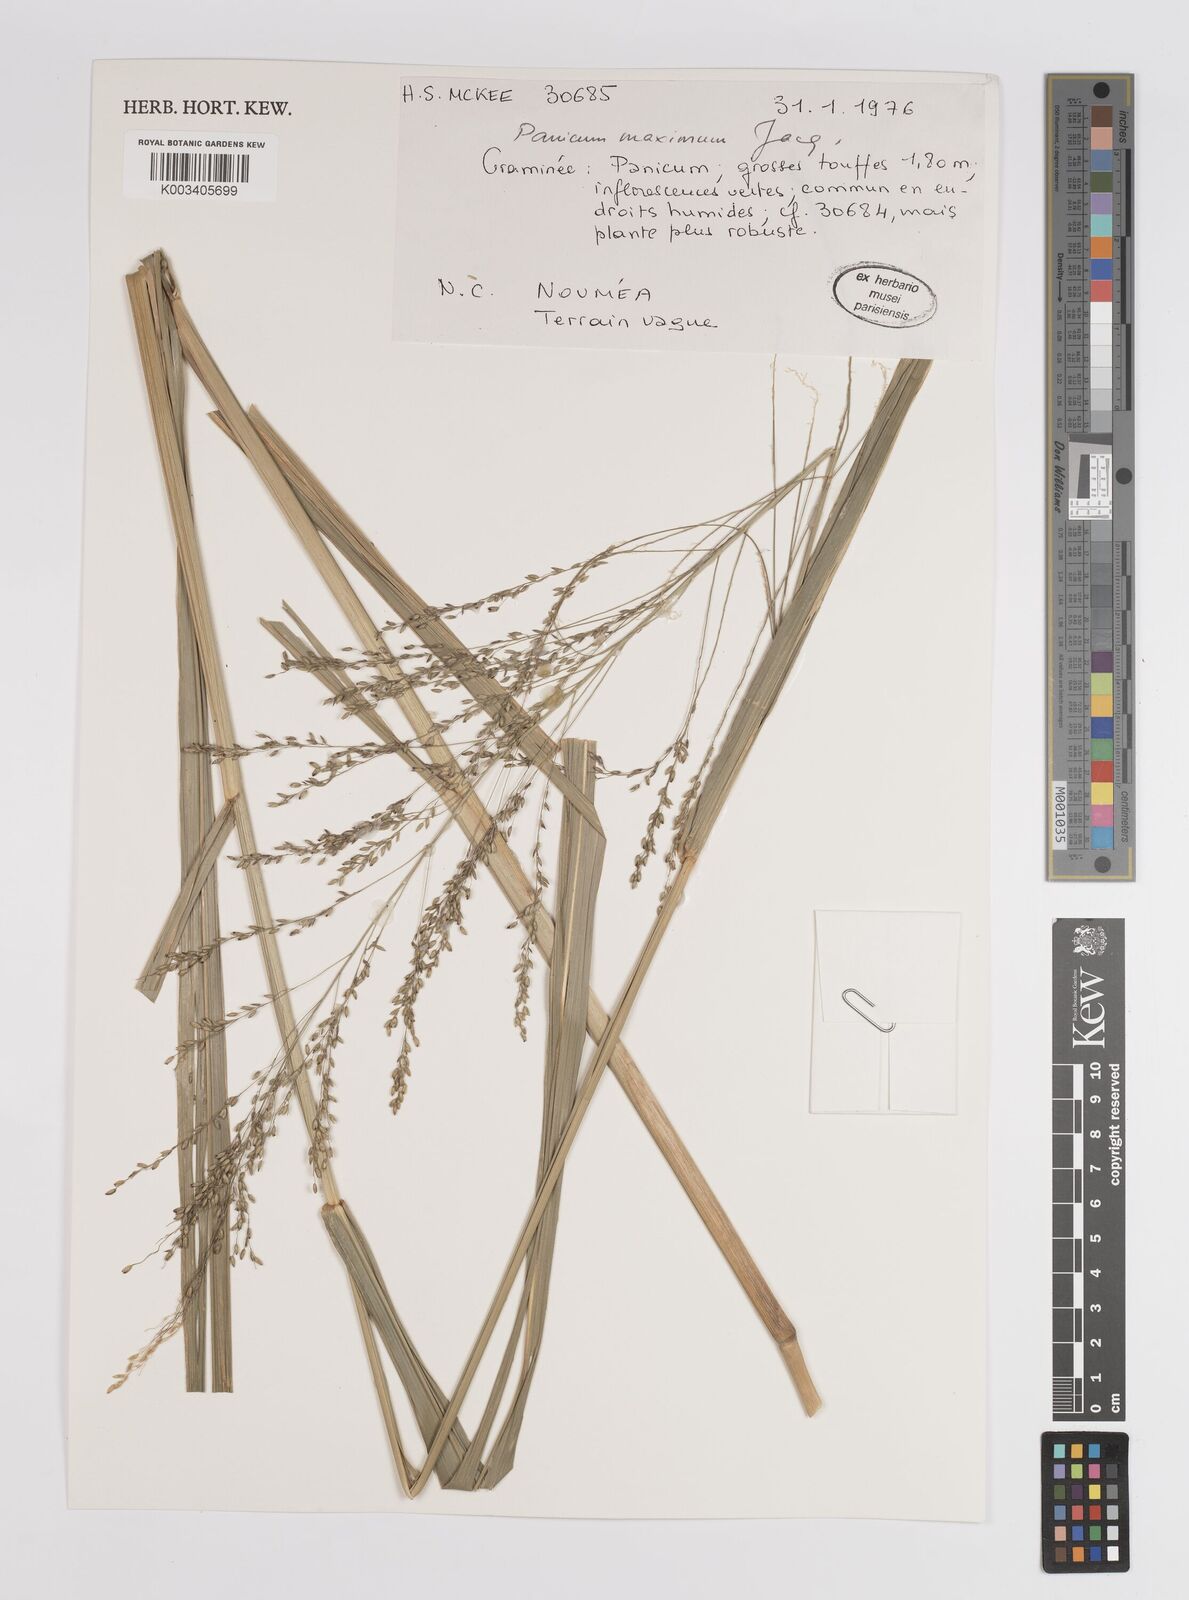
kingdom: Plantae
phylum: Tracheophyta
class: Liliopsida
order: Poales
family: Poaceae
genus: Megathyrsus
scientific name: Megathyrsus maximus
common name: Guineagrass
